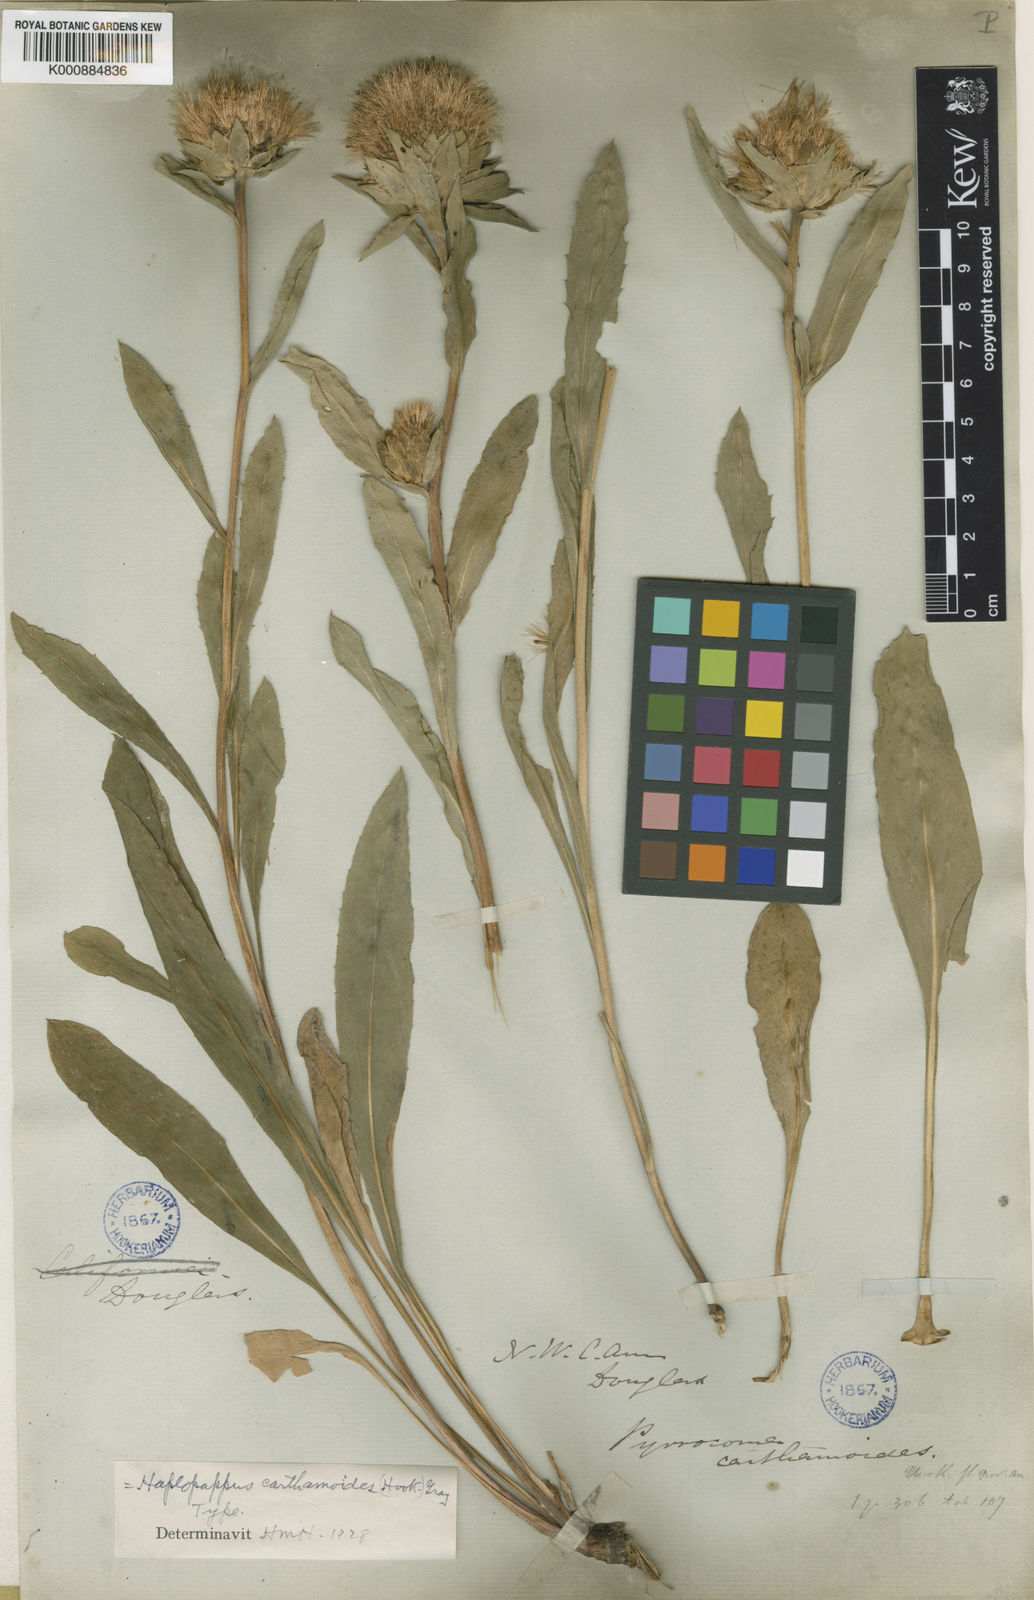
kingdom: Plantae
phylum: Tracheophyta
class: Magnoliopsida
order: Asterales
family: Asteraceae
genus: Pyrrocoma
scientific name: Pyrrocoma carthamoides
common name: Large-flower goldenweed
